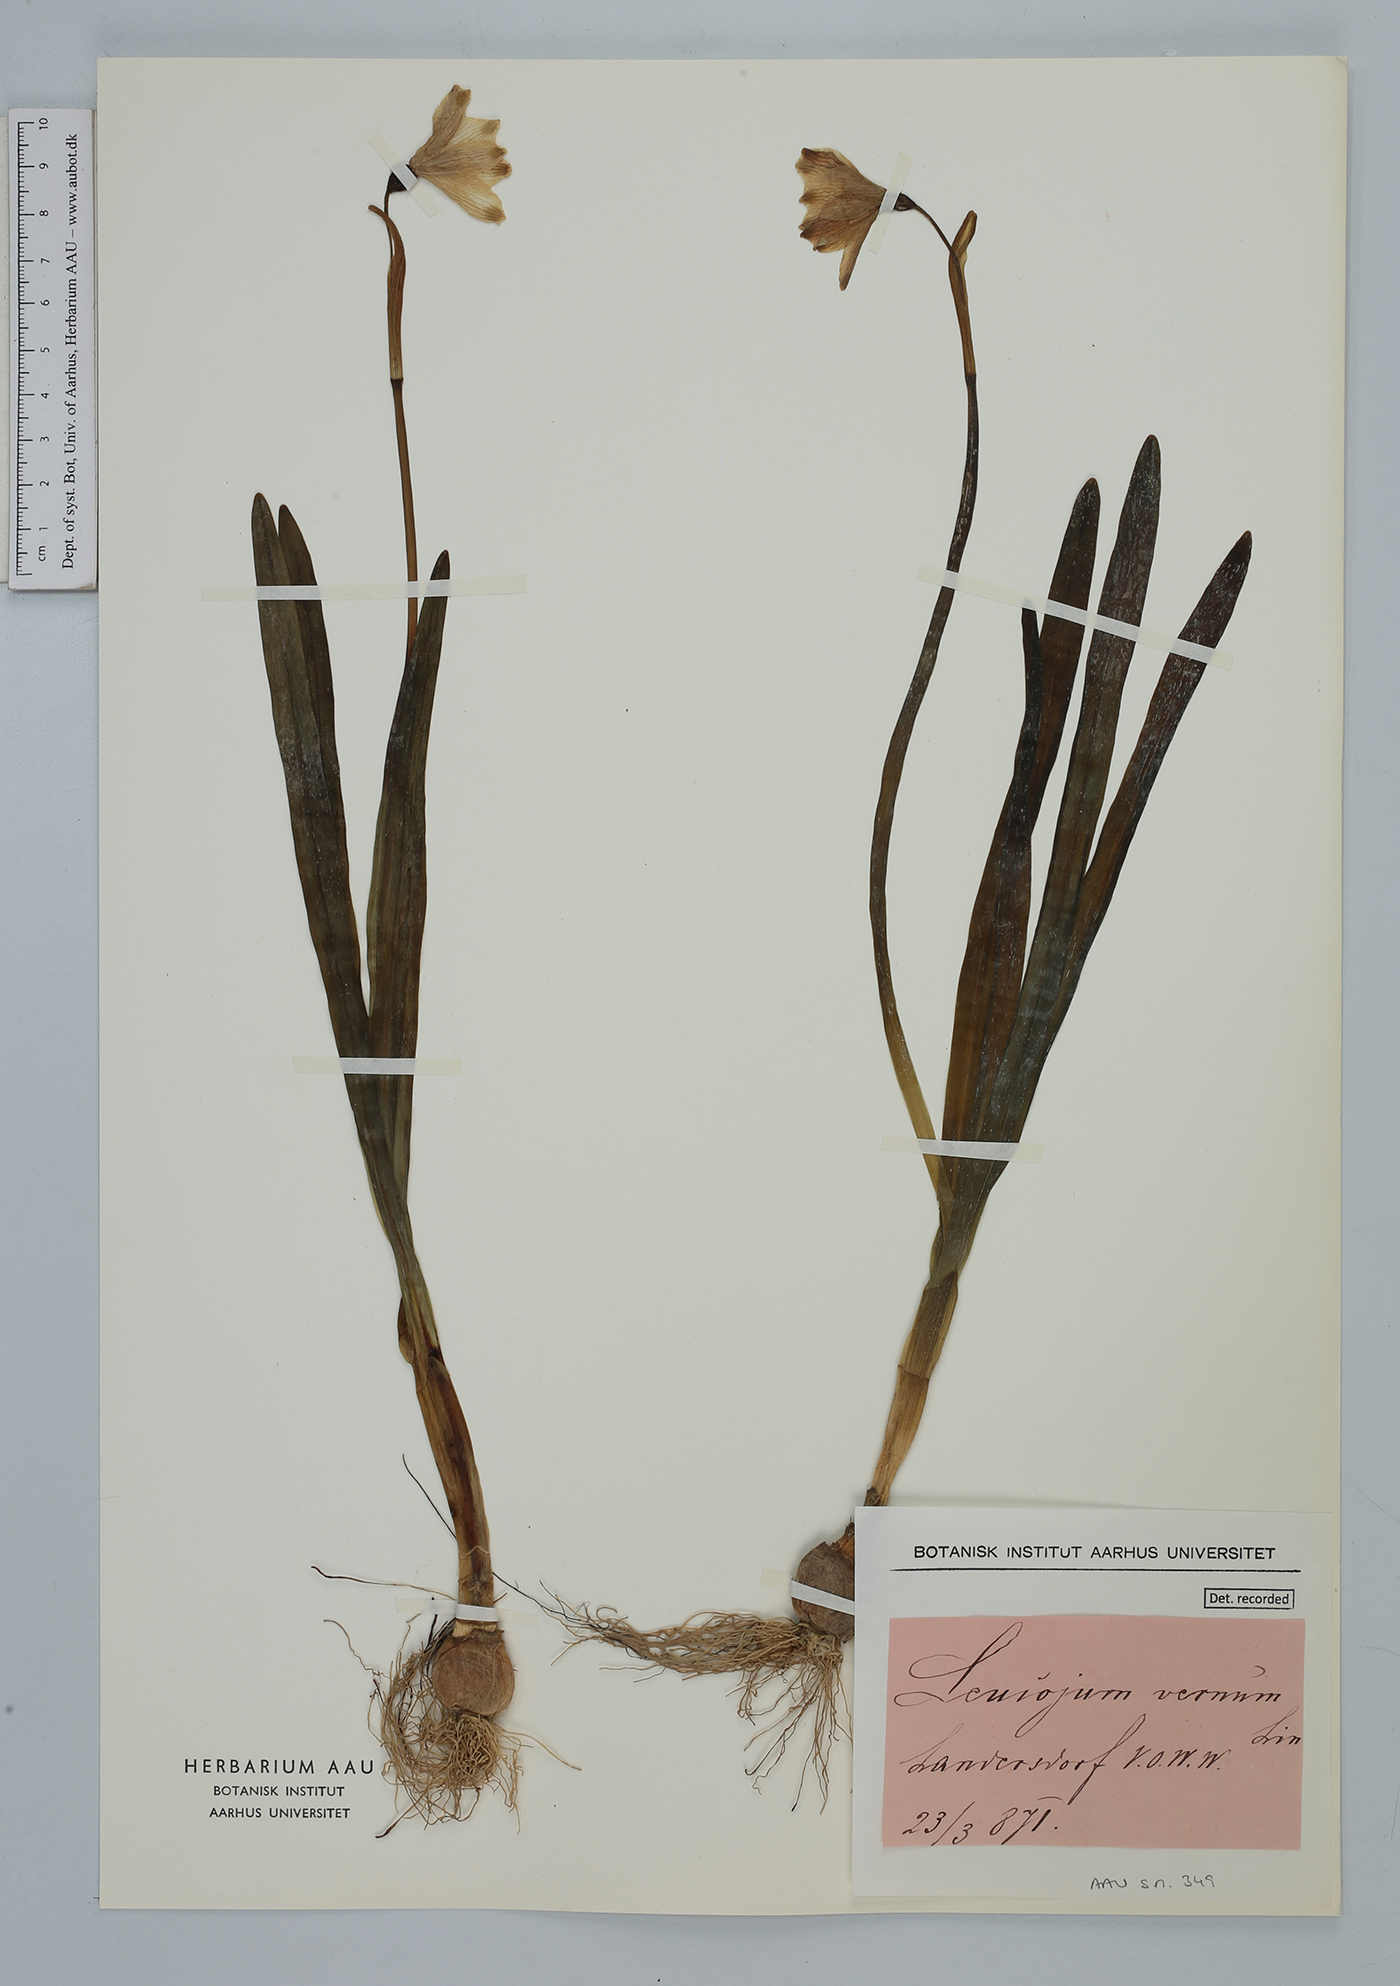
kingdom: Plantae
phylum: Tracheophyta
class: Liliopsida
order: Asparagales
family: Amaryllidaceae
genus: Leucojum
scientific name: Leucojum aestivum
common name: Summer snowflake
